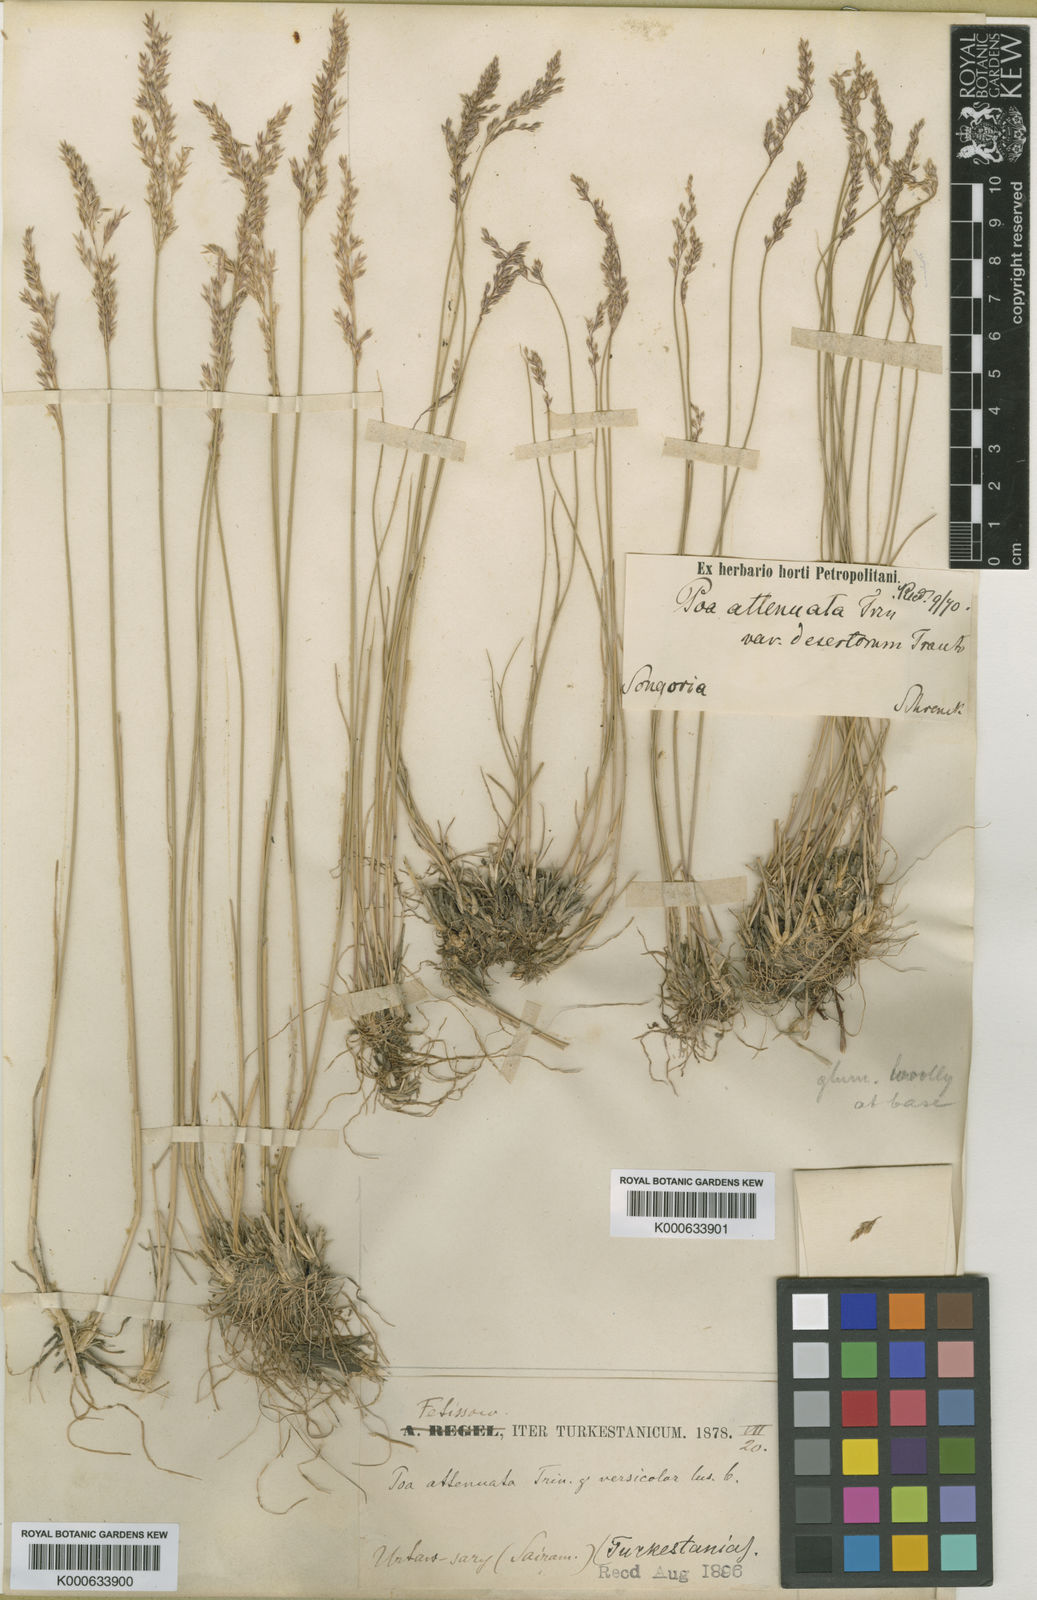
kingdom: Plantae
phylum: Tracheophyta
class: Liliopsida
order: Poales
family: Poaceae
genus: Poa
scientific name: Poa attenuata
